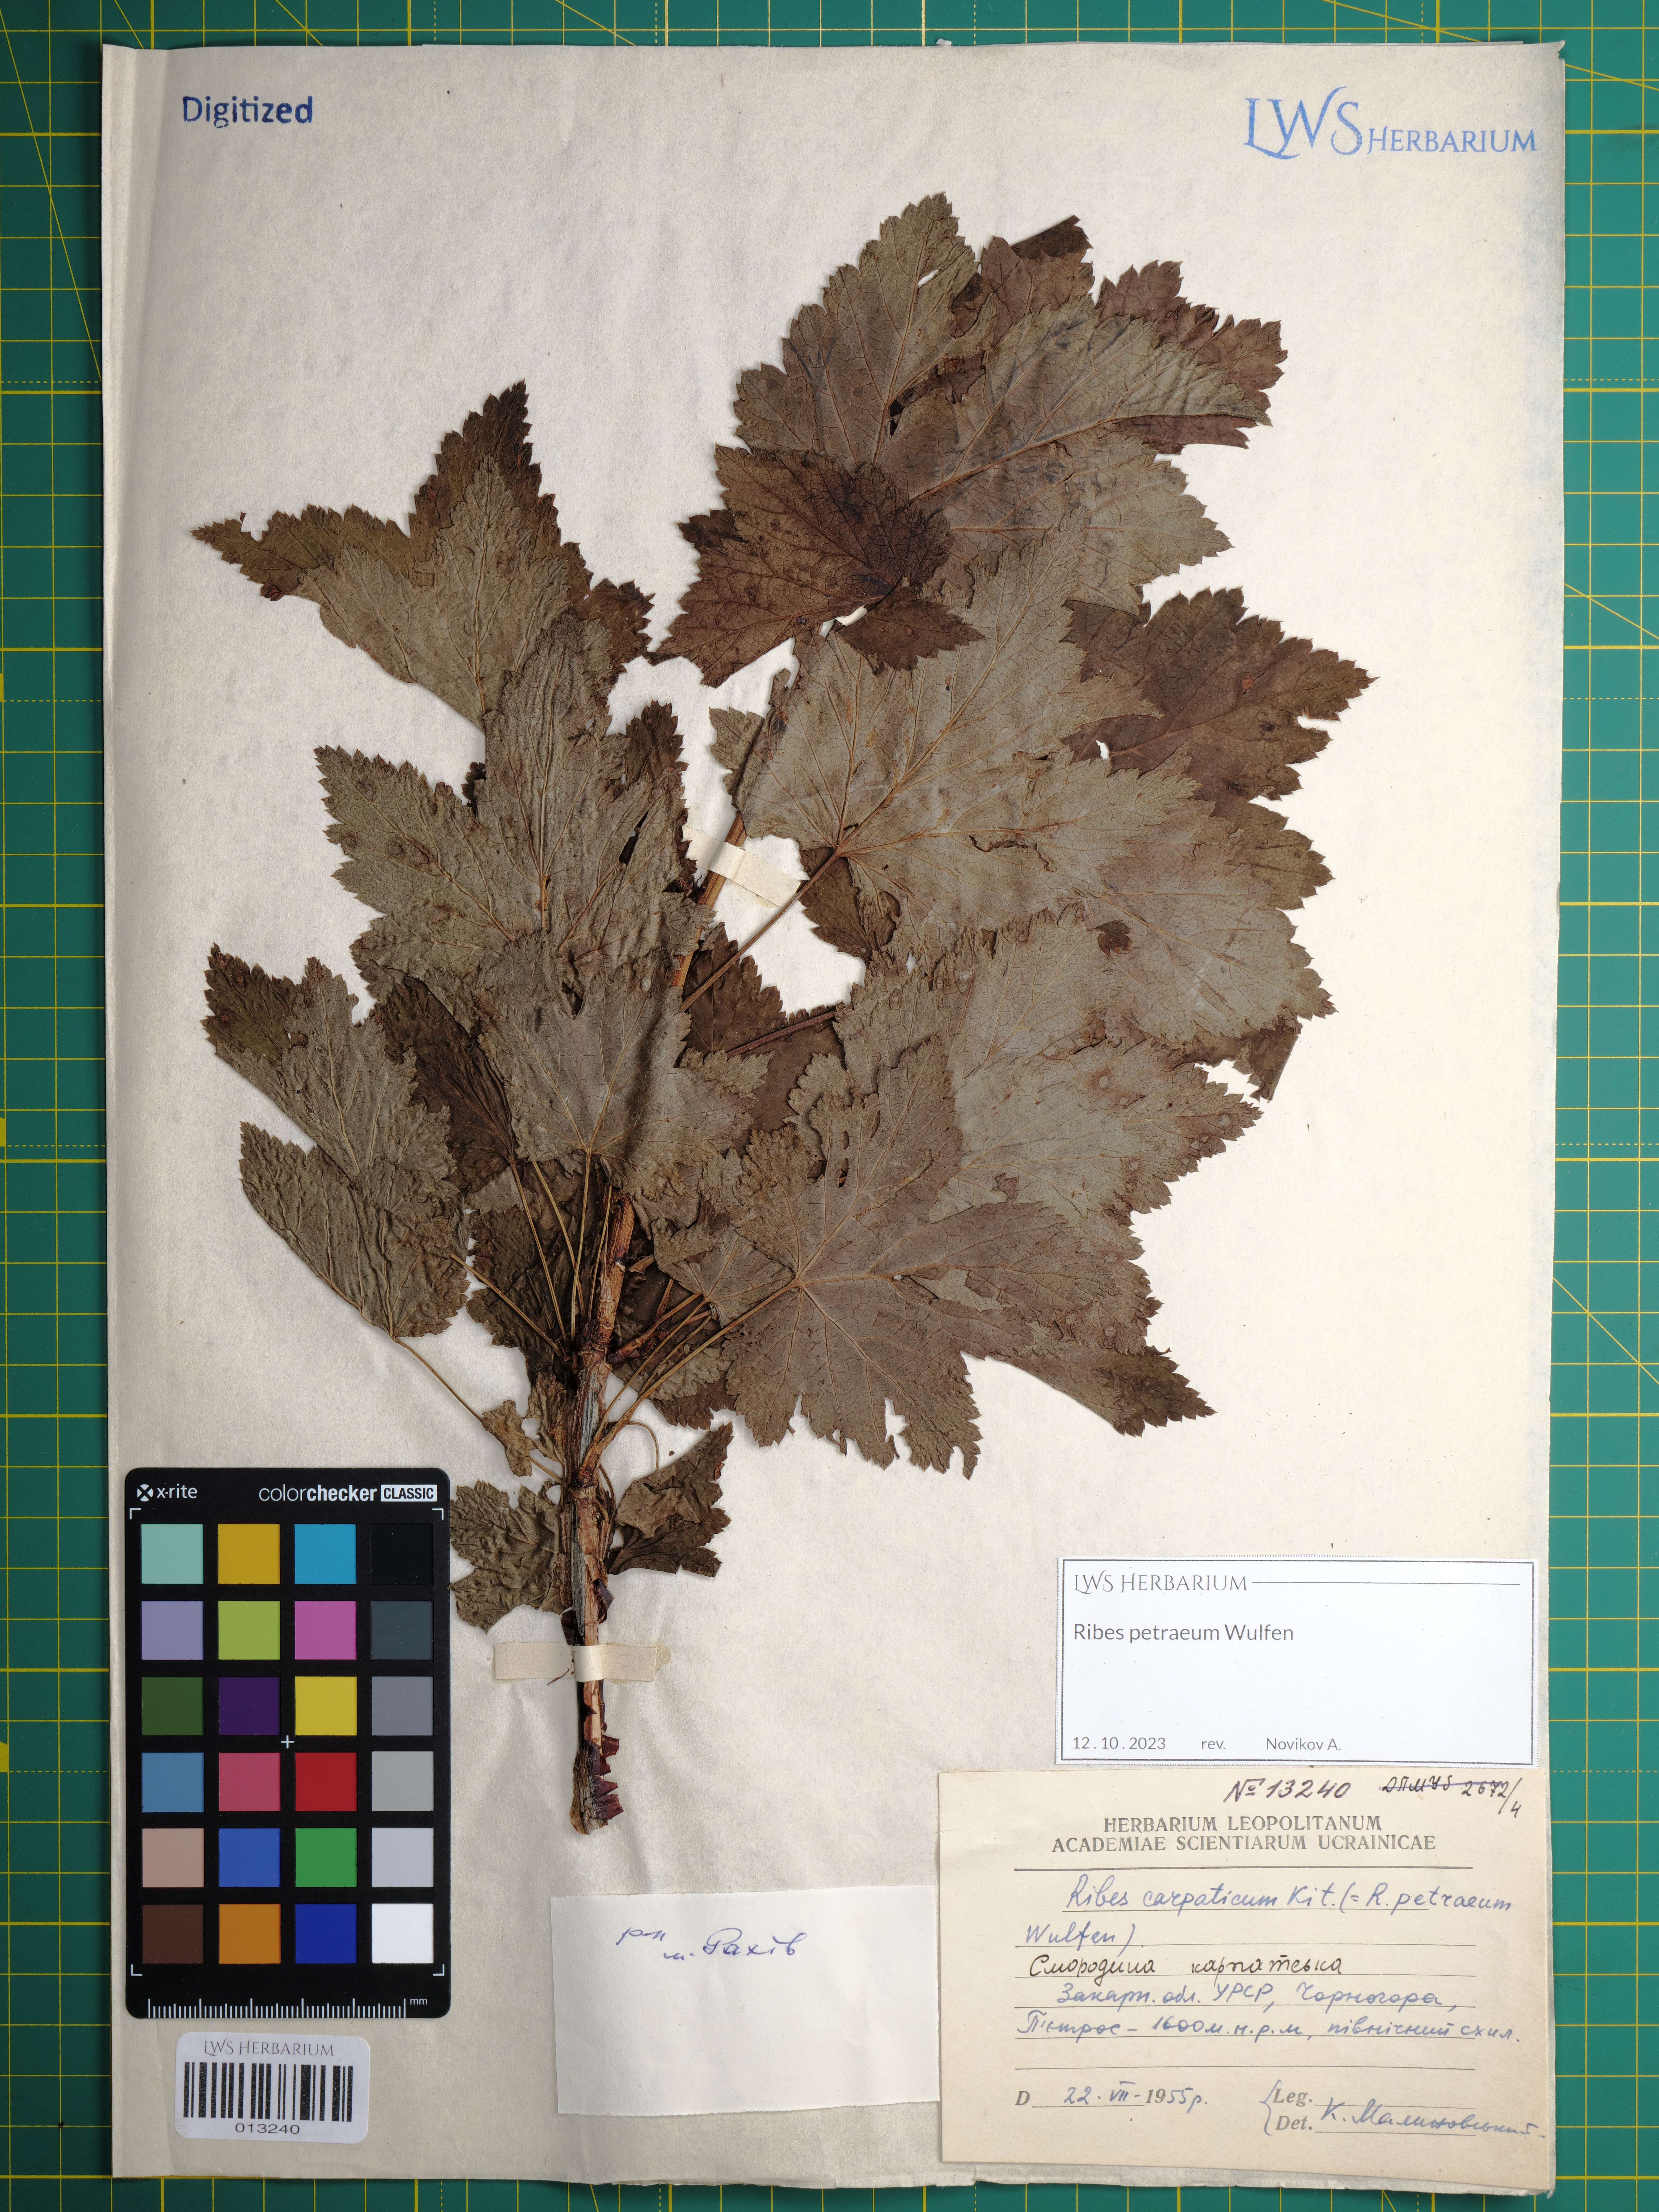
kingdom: Plantae
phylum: Tracheophyta
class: Magnoliopsida
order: Saxifragales
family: Grossulariaceae
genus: Ribes
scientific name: Ribes petraeum
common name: Rock currant
